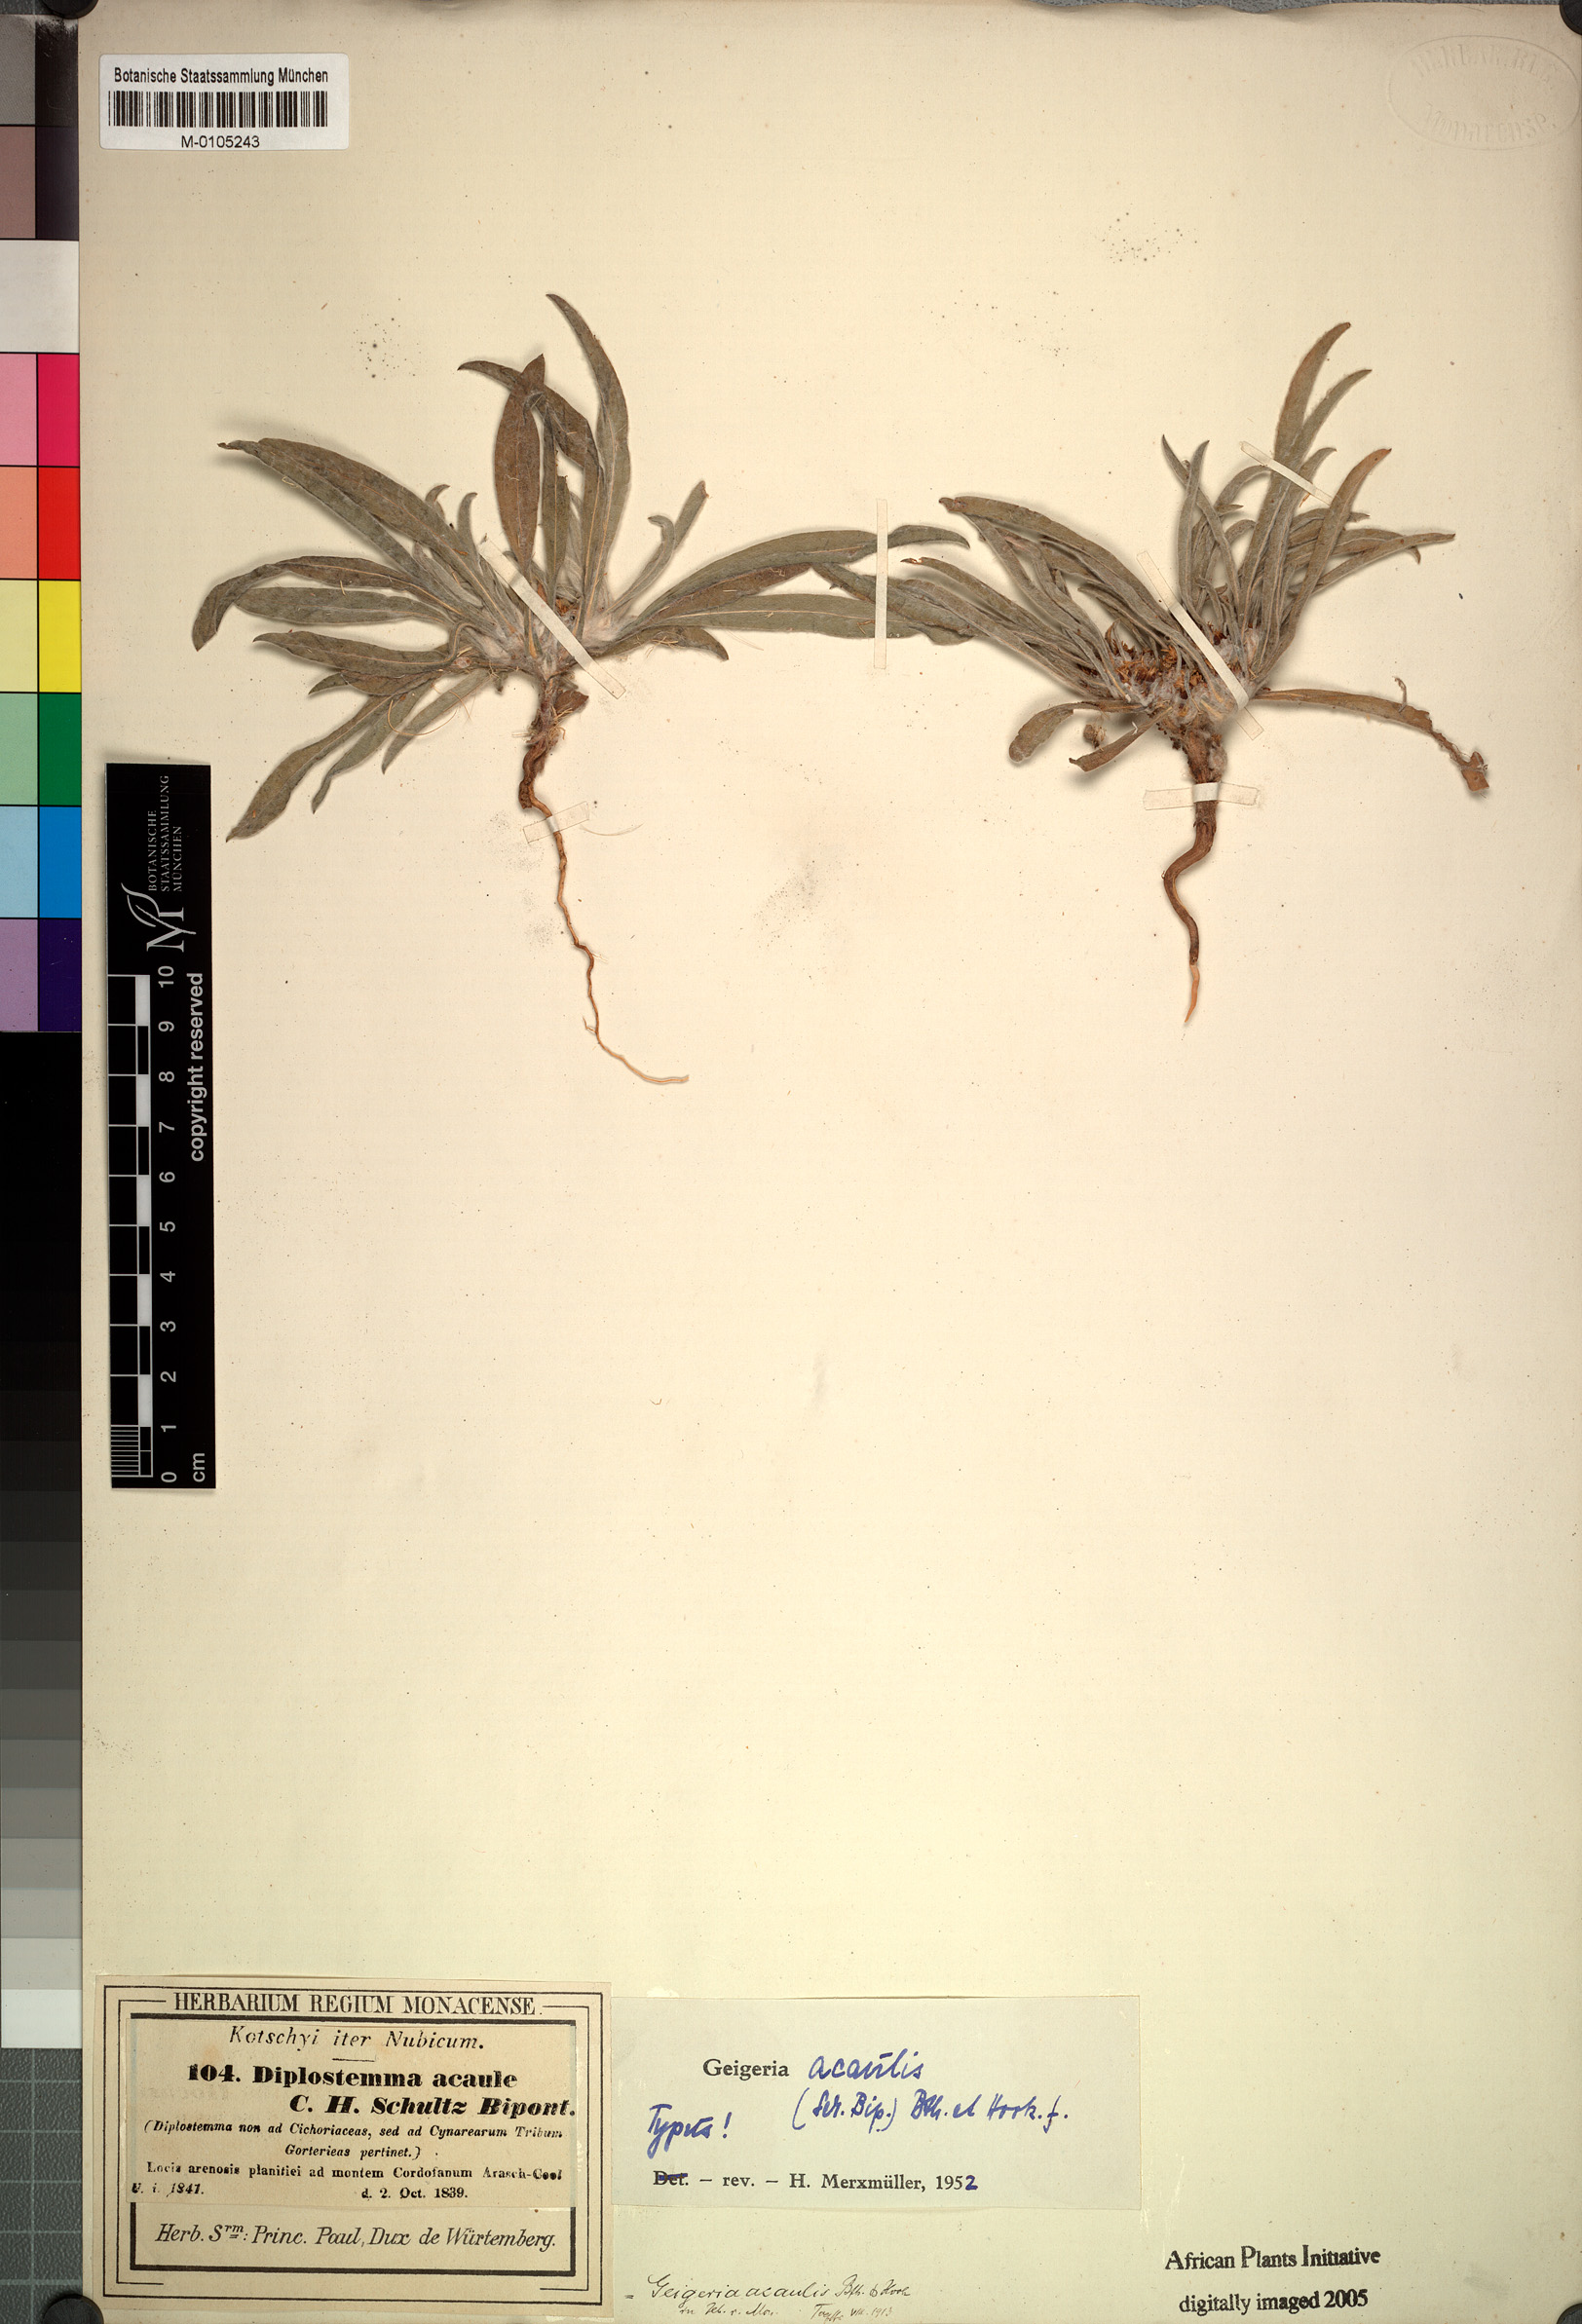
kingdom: Plantae
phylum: Tracheophyta
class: Magnoliopsida
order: Asterales
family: Asteraceae
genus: Geigeria
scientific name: Geigeria acaulis
